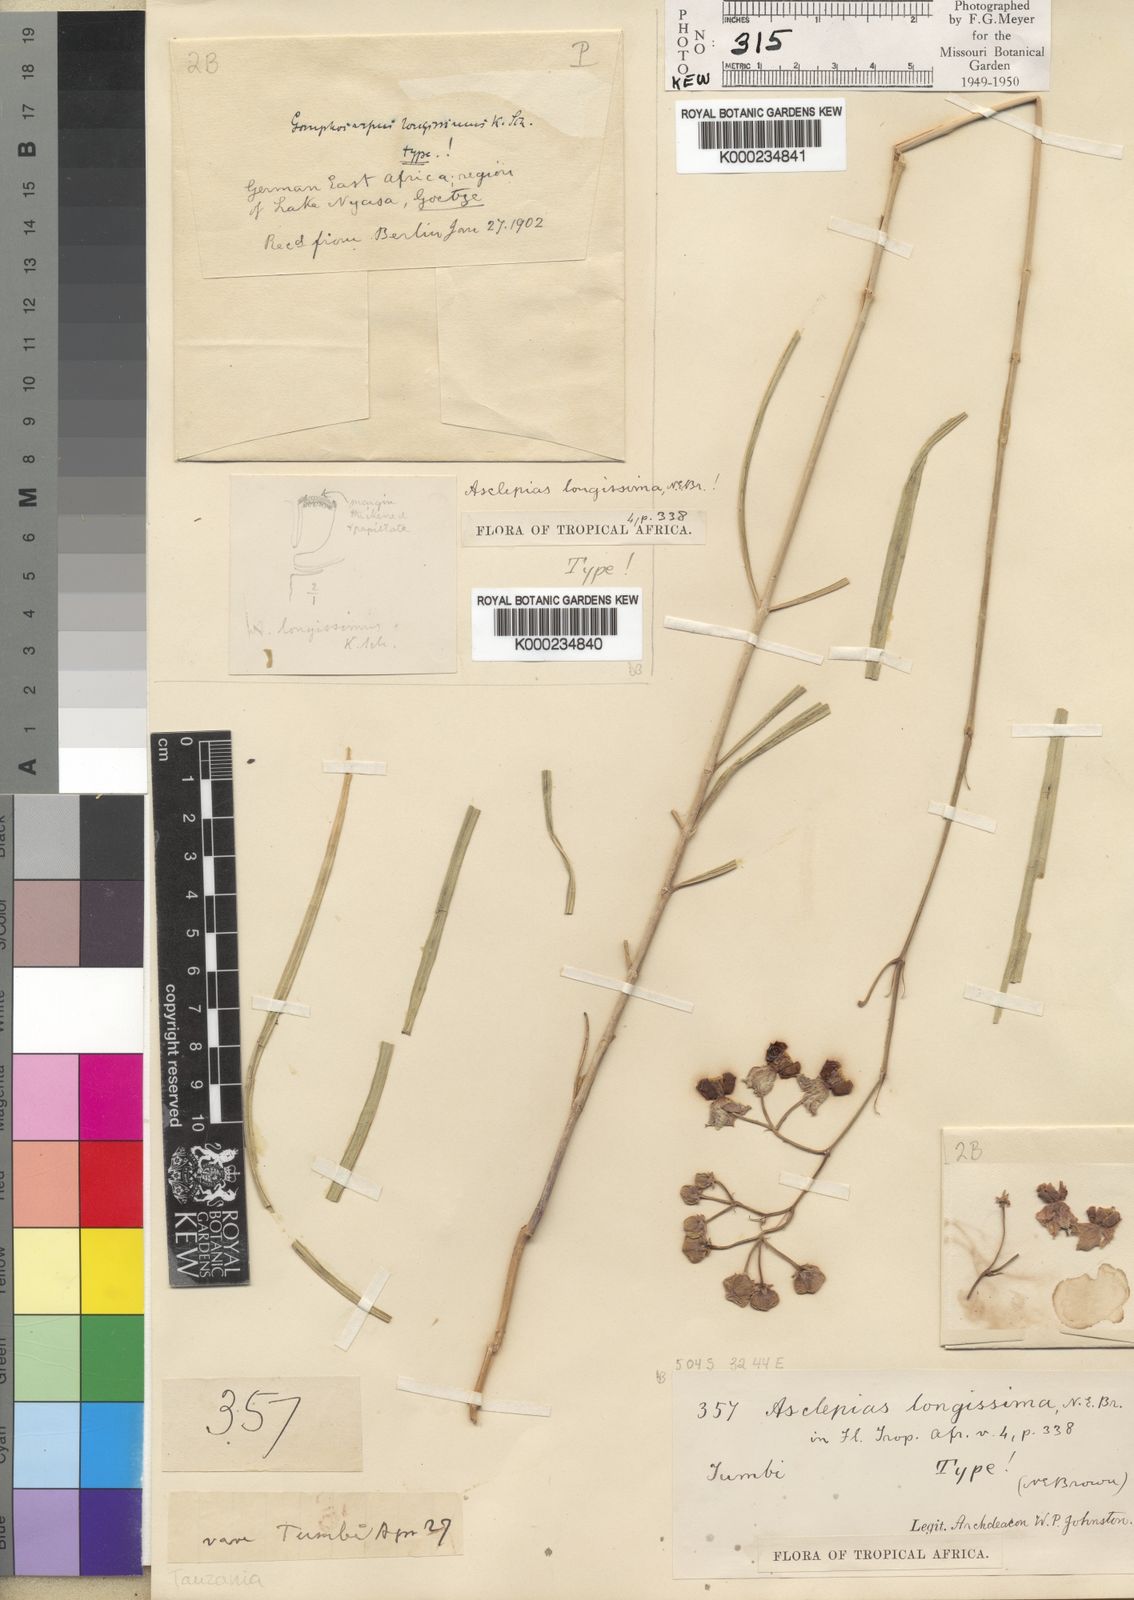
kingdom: Plantae
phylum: Tracheophyta
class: Magnoliopsida
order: Gentianales
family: Apocynaceae
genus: Asclepias
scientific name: Asclepias longissima
